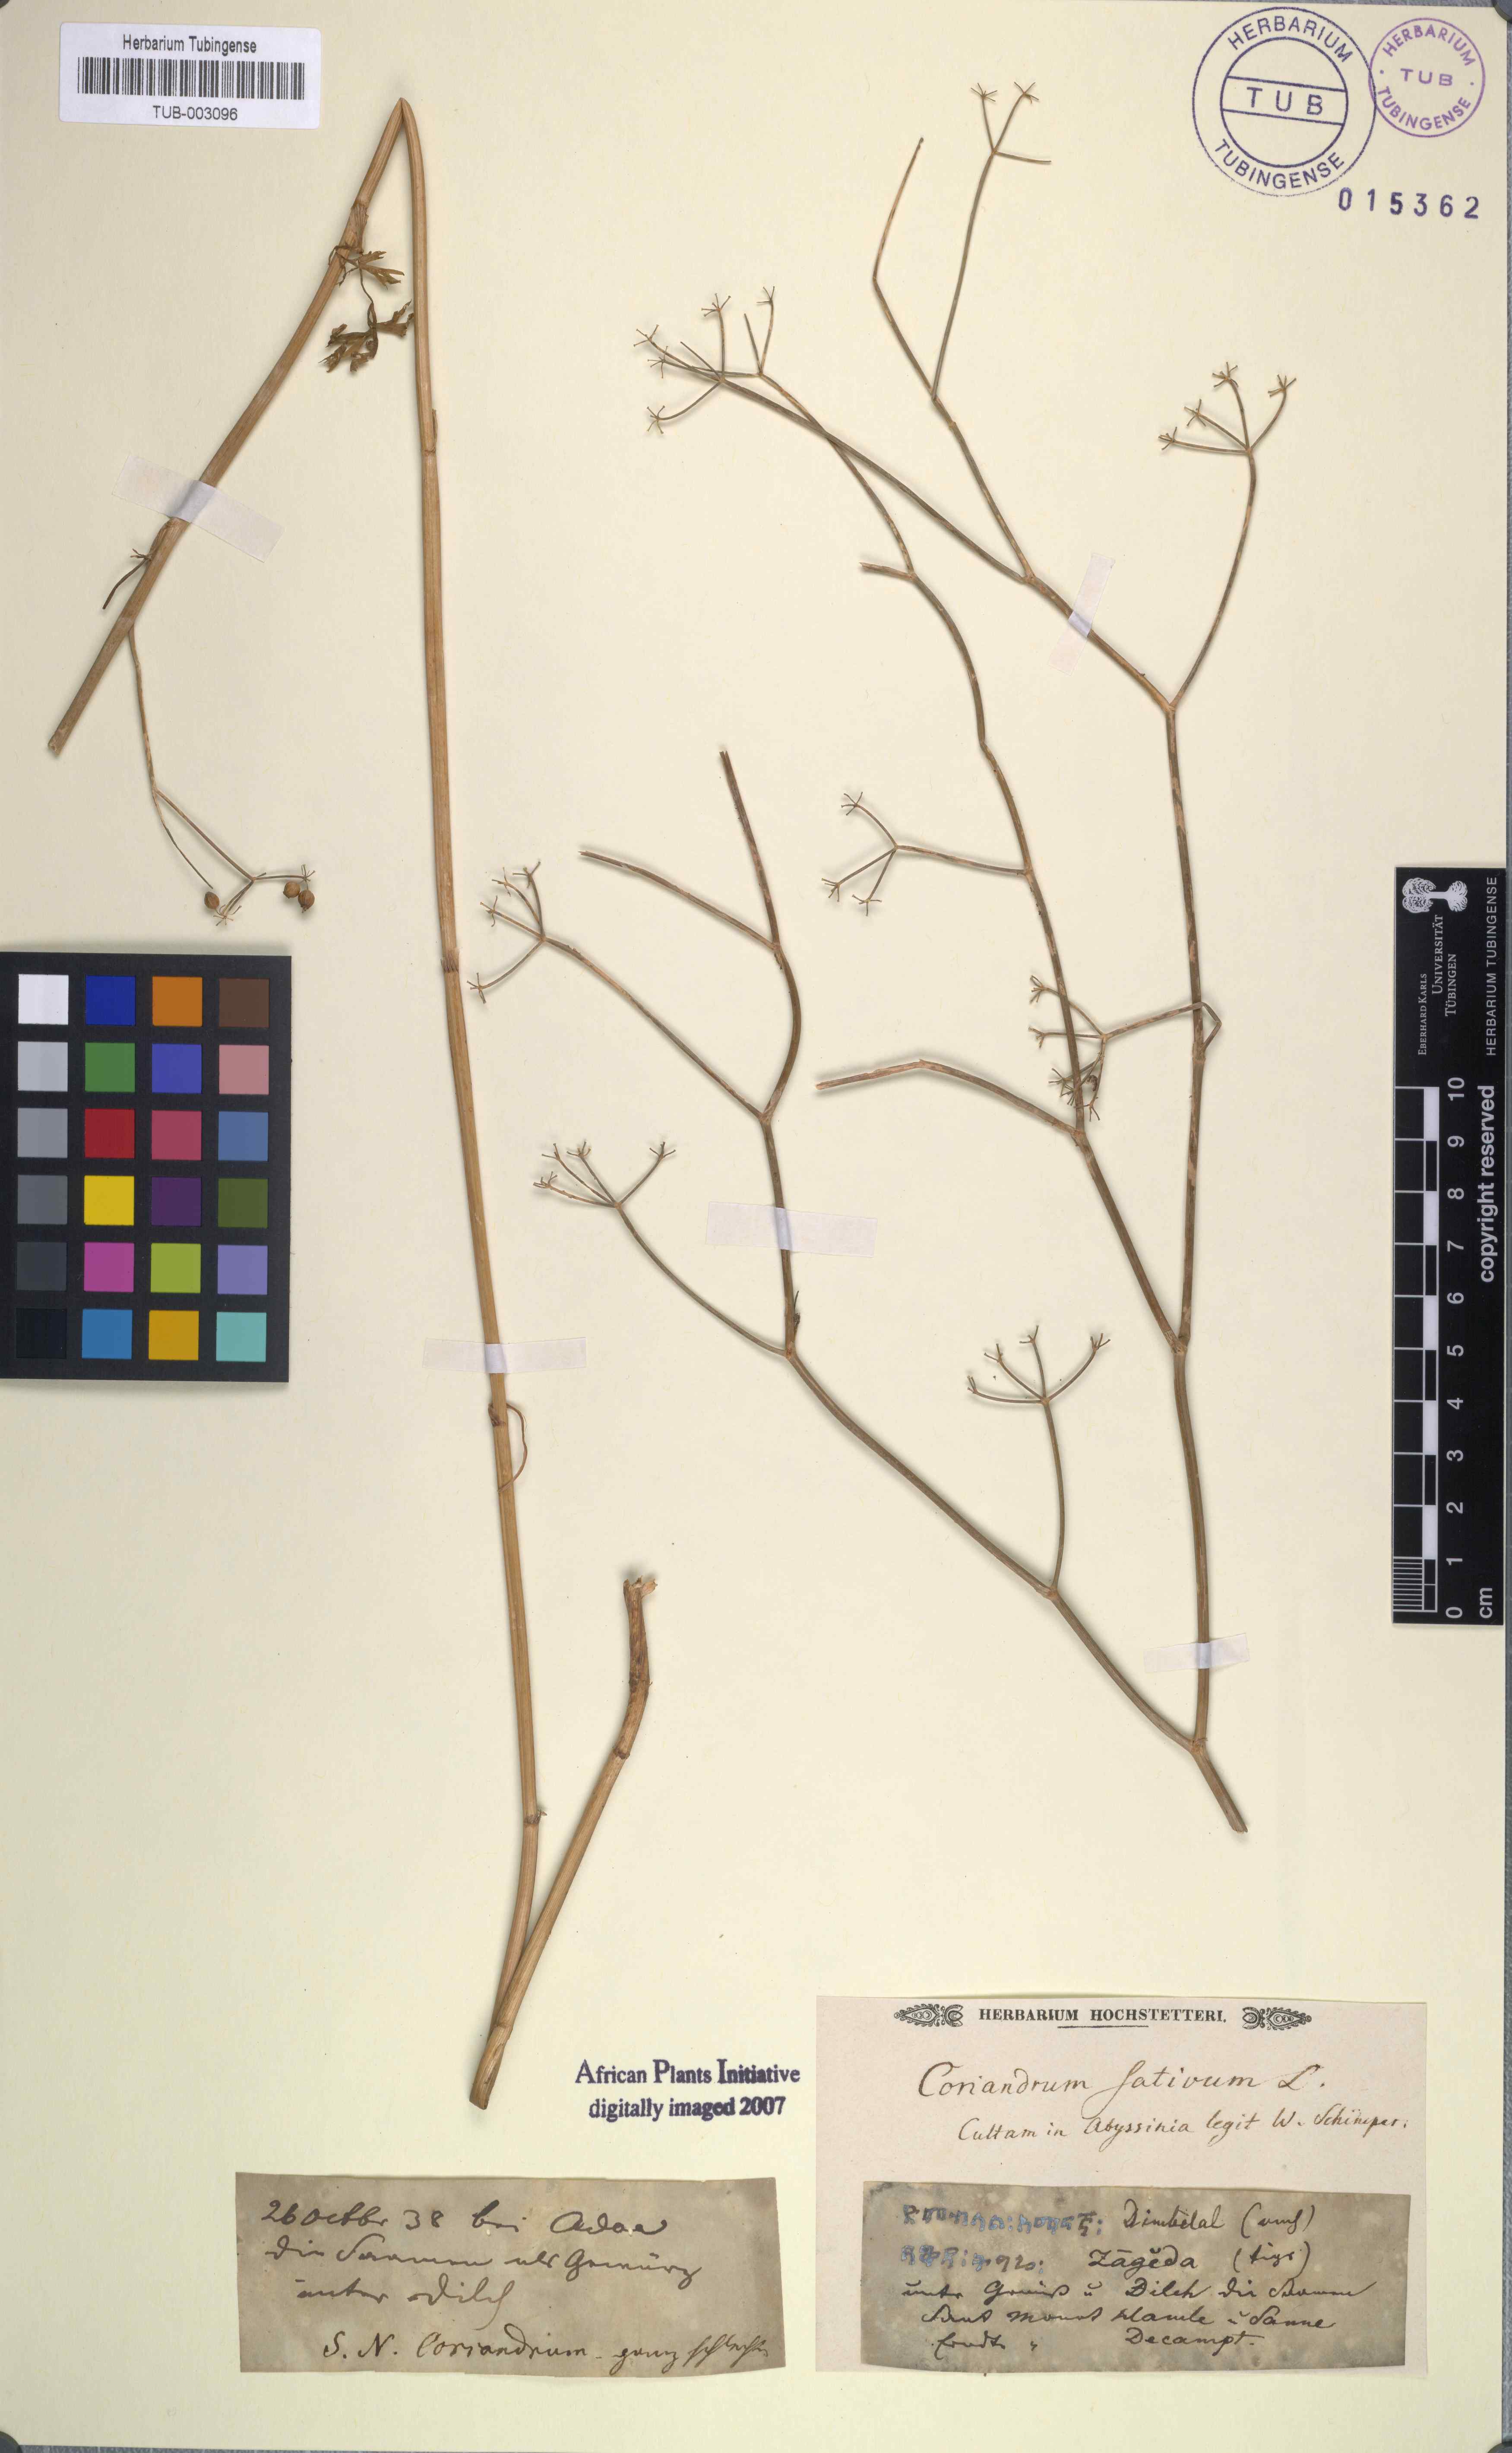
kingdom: Plantae
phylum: Tracheophyta
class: Magnoliopsida
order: Apiales
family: Apiaceae
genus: Coriandrum
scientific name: Coriandrum sativum
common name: Coriander
